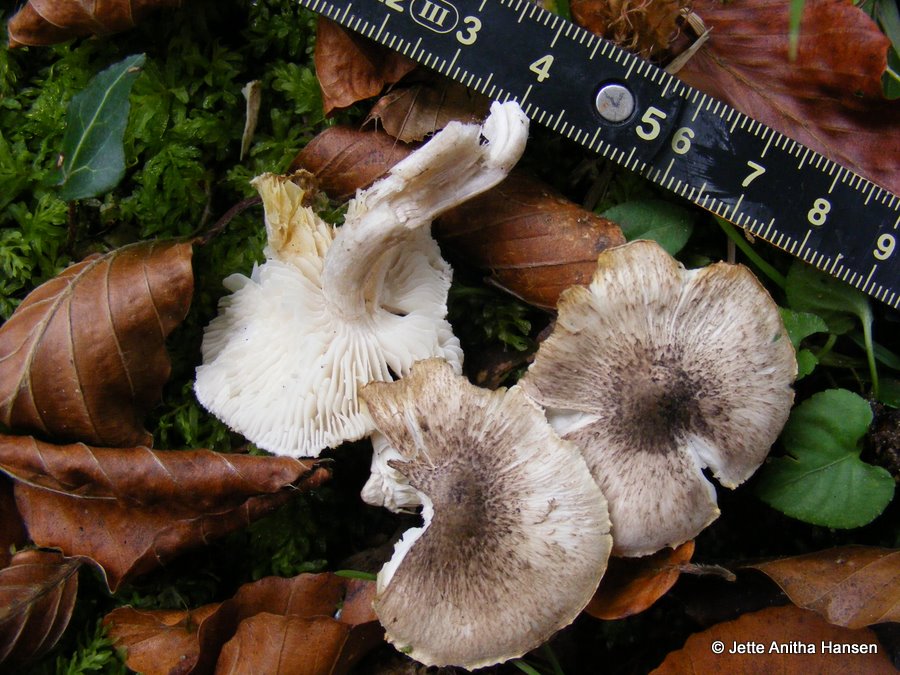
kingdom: Fungi
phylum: Basidiomycota
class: Agaricomycetes
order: Agaricales
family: Tricholomataceae
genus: Tricholoma
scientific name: Tricholoma scalpturatum
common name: gulplettet ridderhat
